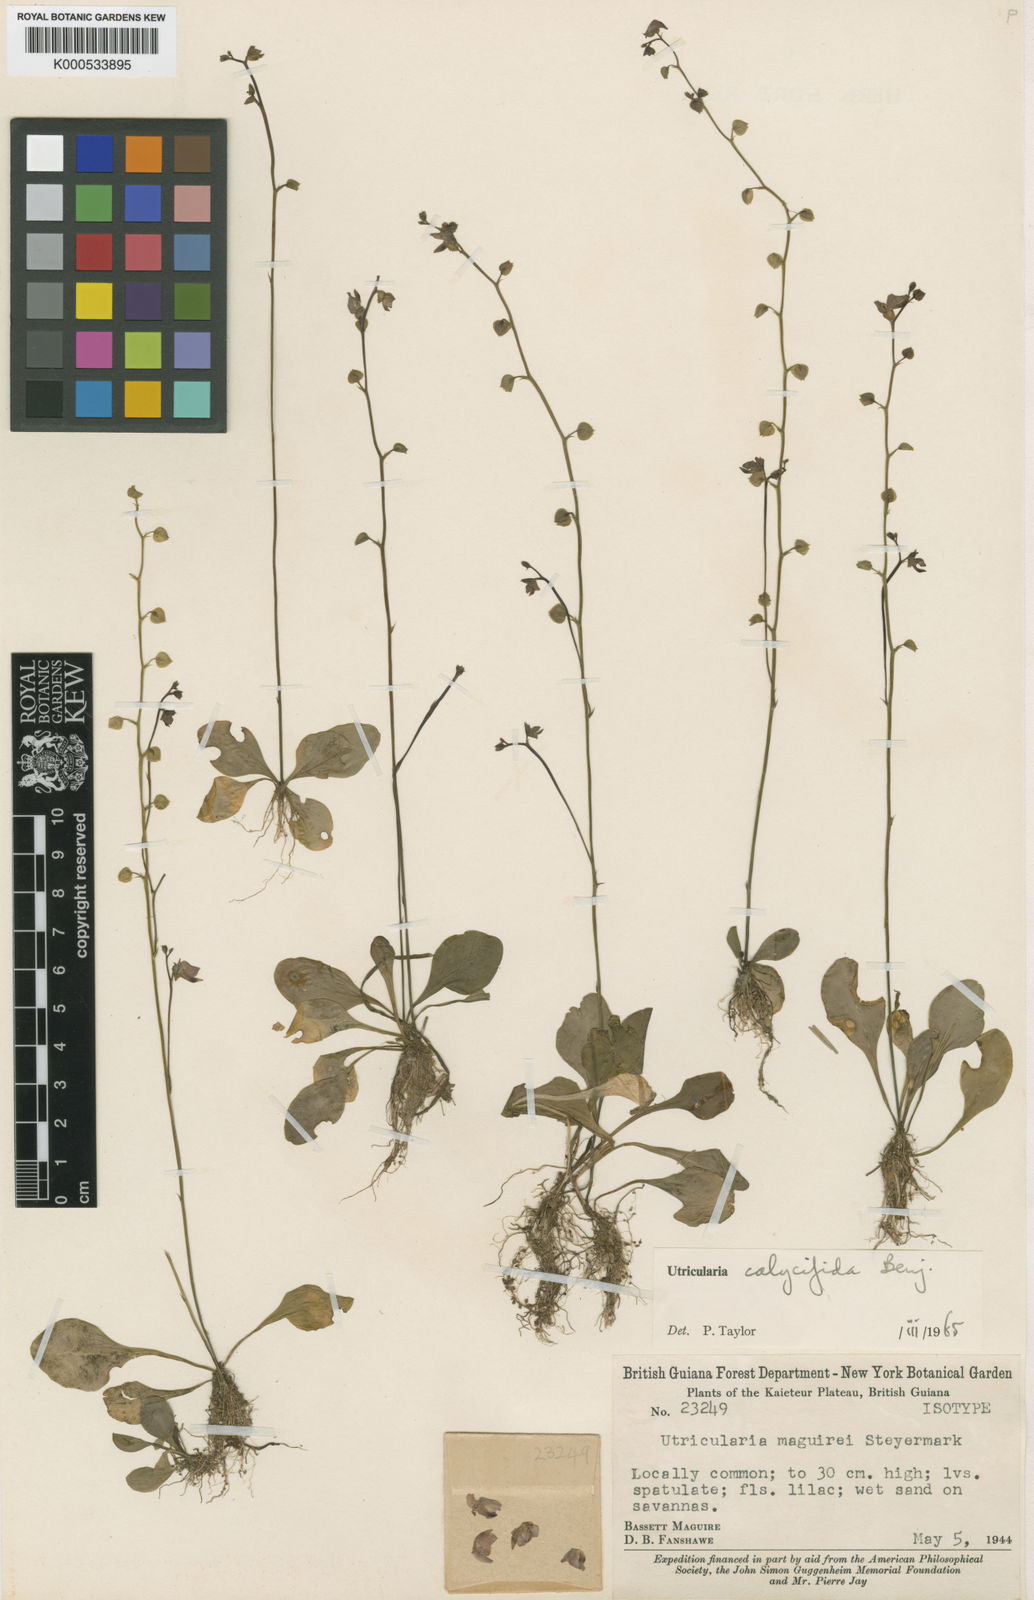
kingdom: Plantae
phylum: Tracheophyta
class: Magnoliopsida
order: Lamiales
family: Lentibulariaceae
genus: Utricularia
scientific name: Utricularia calycifida
